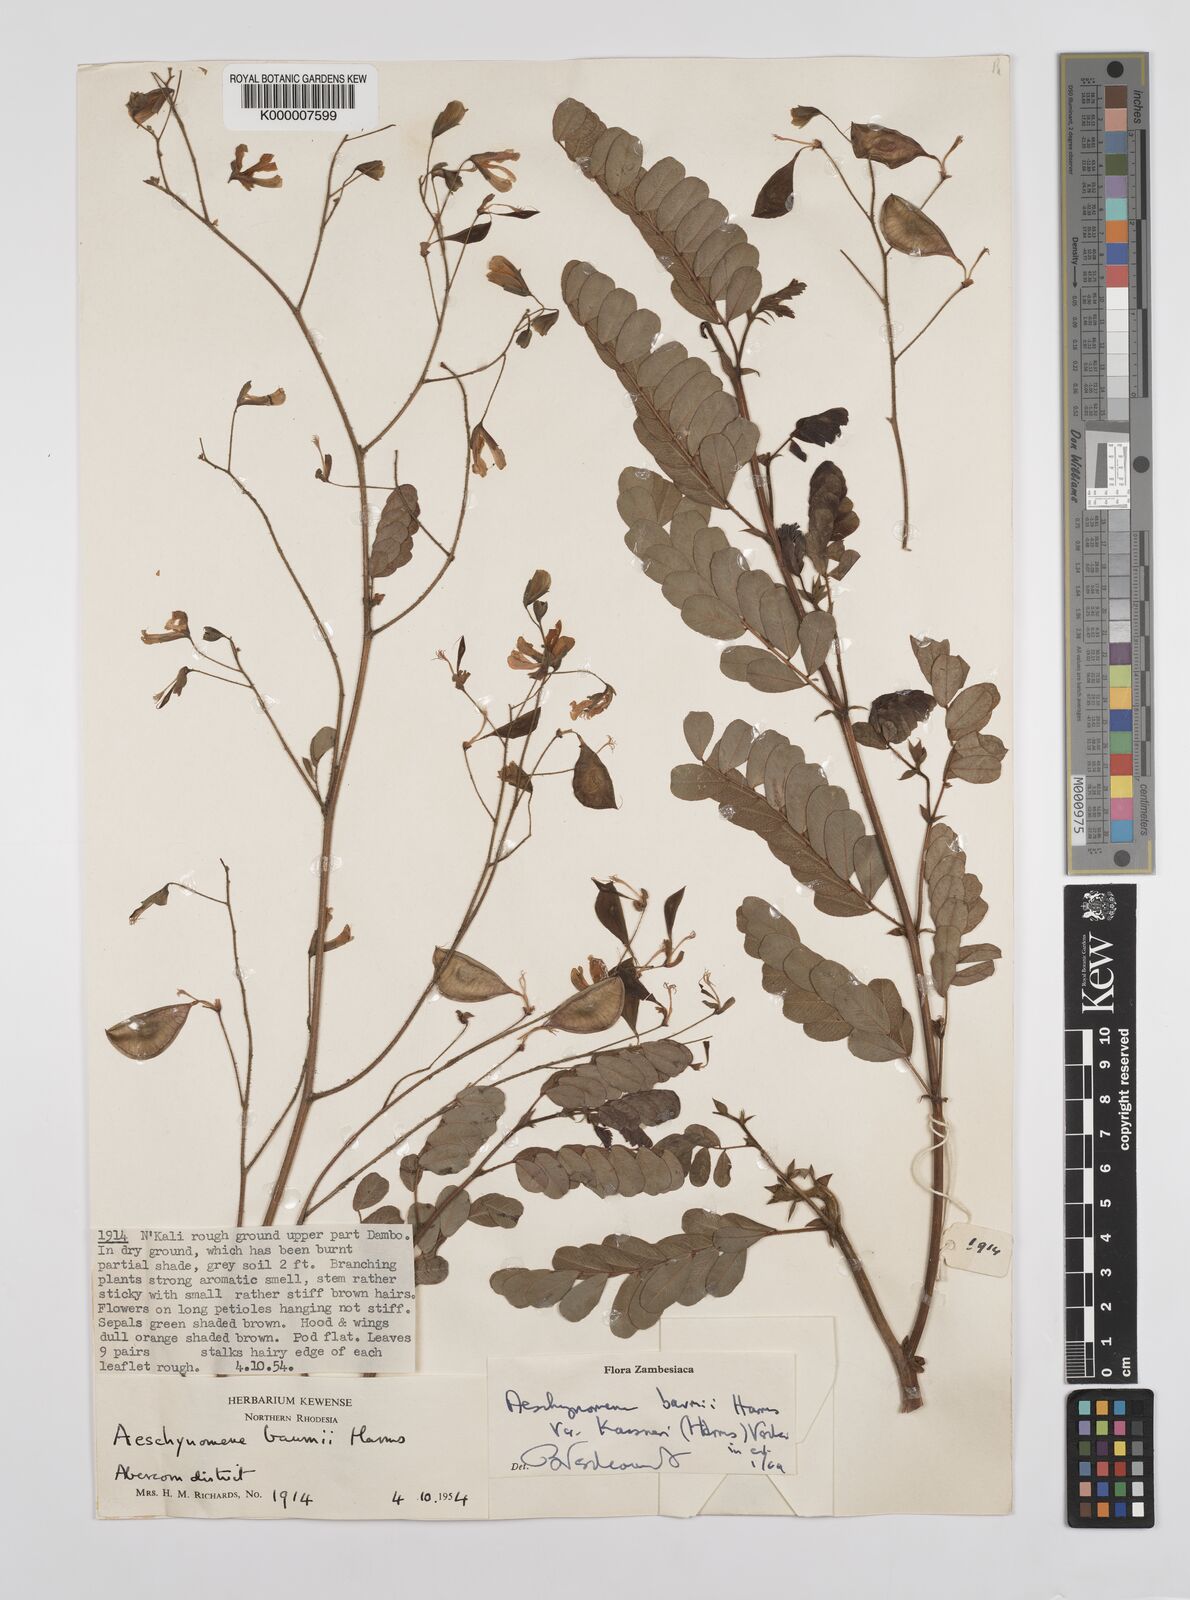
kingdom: Plantae
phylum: Tracheophyta
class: Magnoliopsida
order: Fabales
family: Fabaceae
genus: Aeschynomene
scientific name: Aeschynomene baumii
